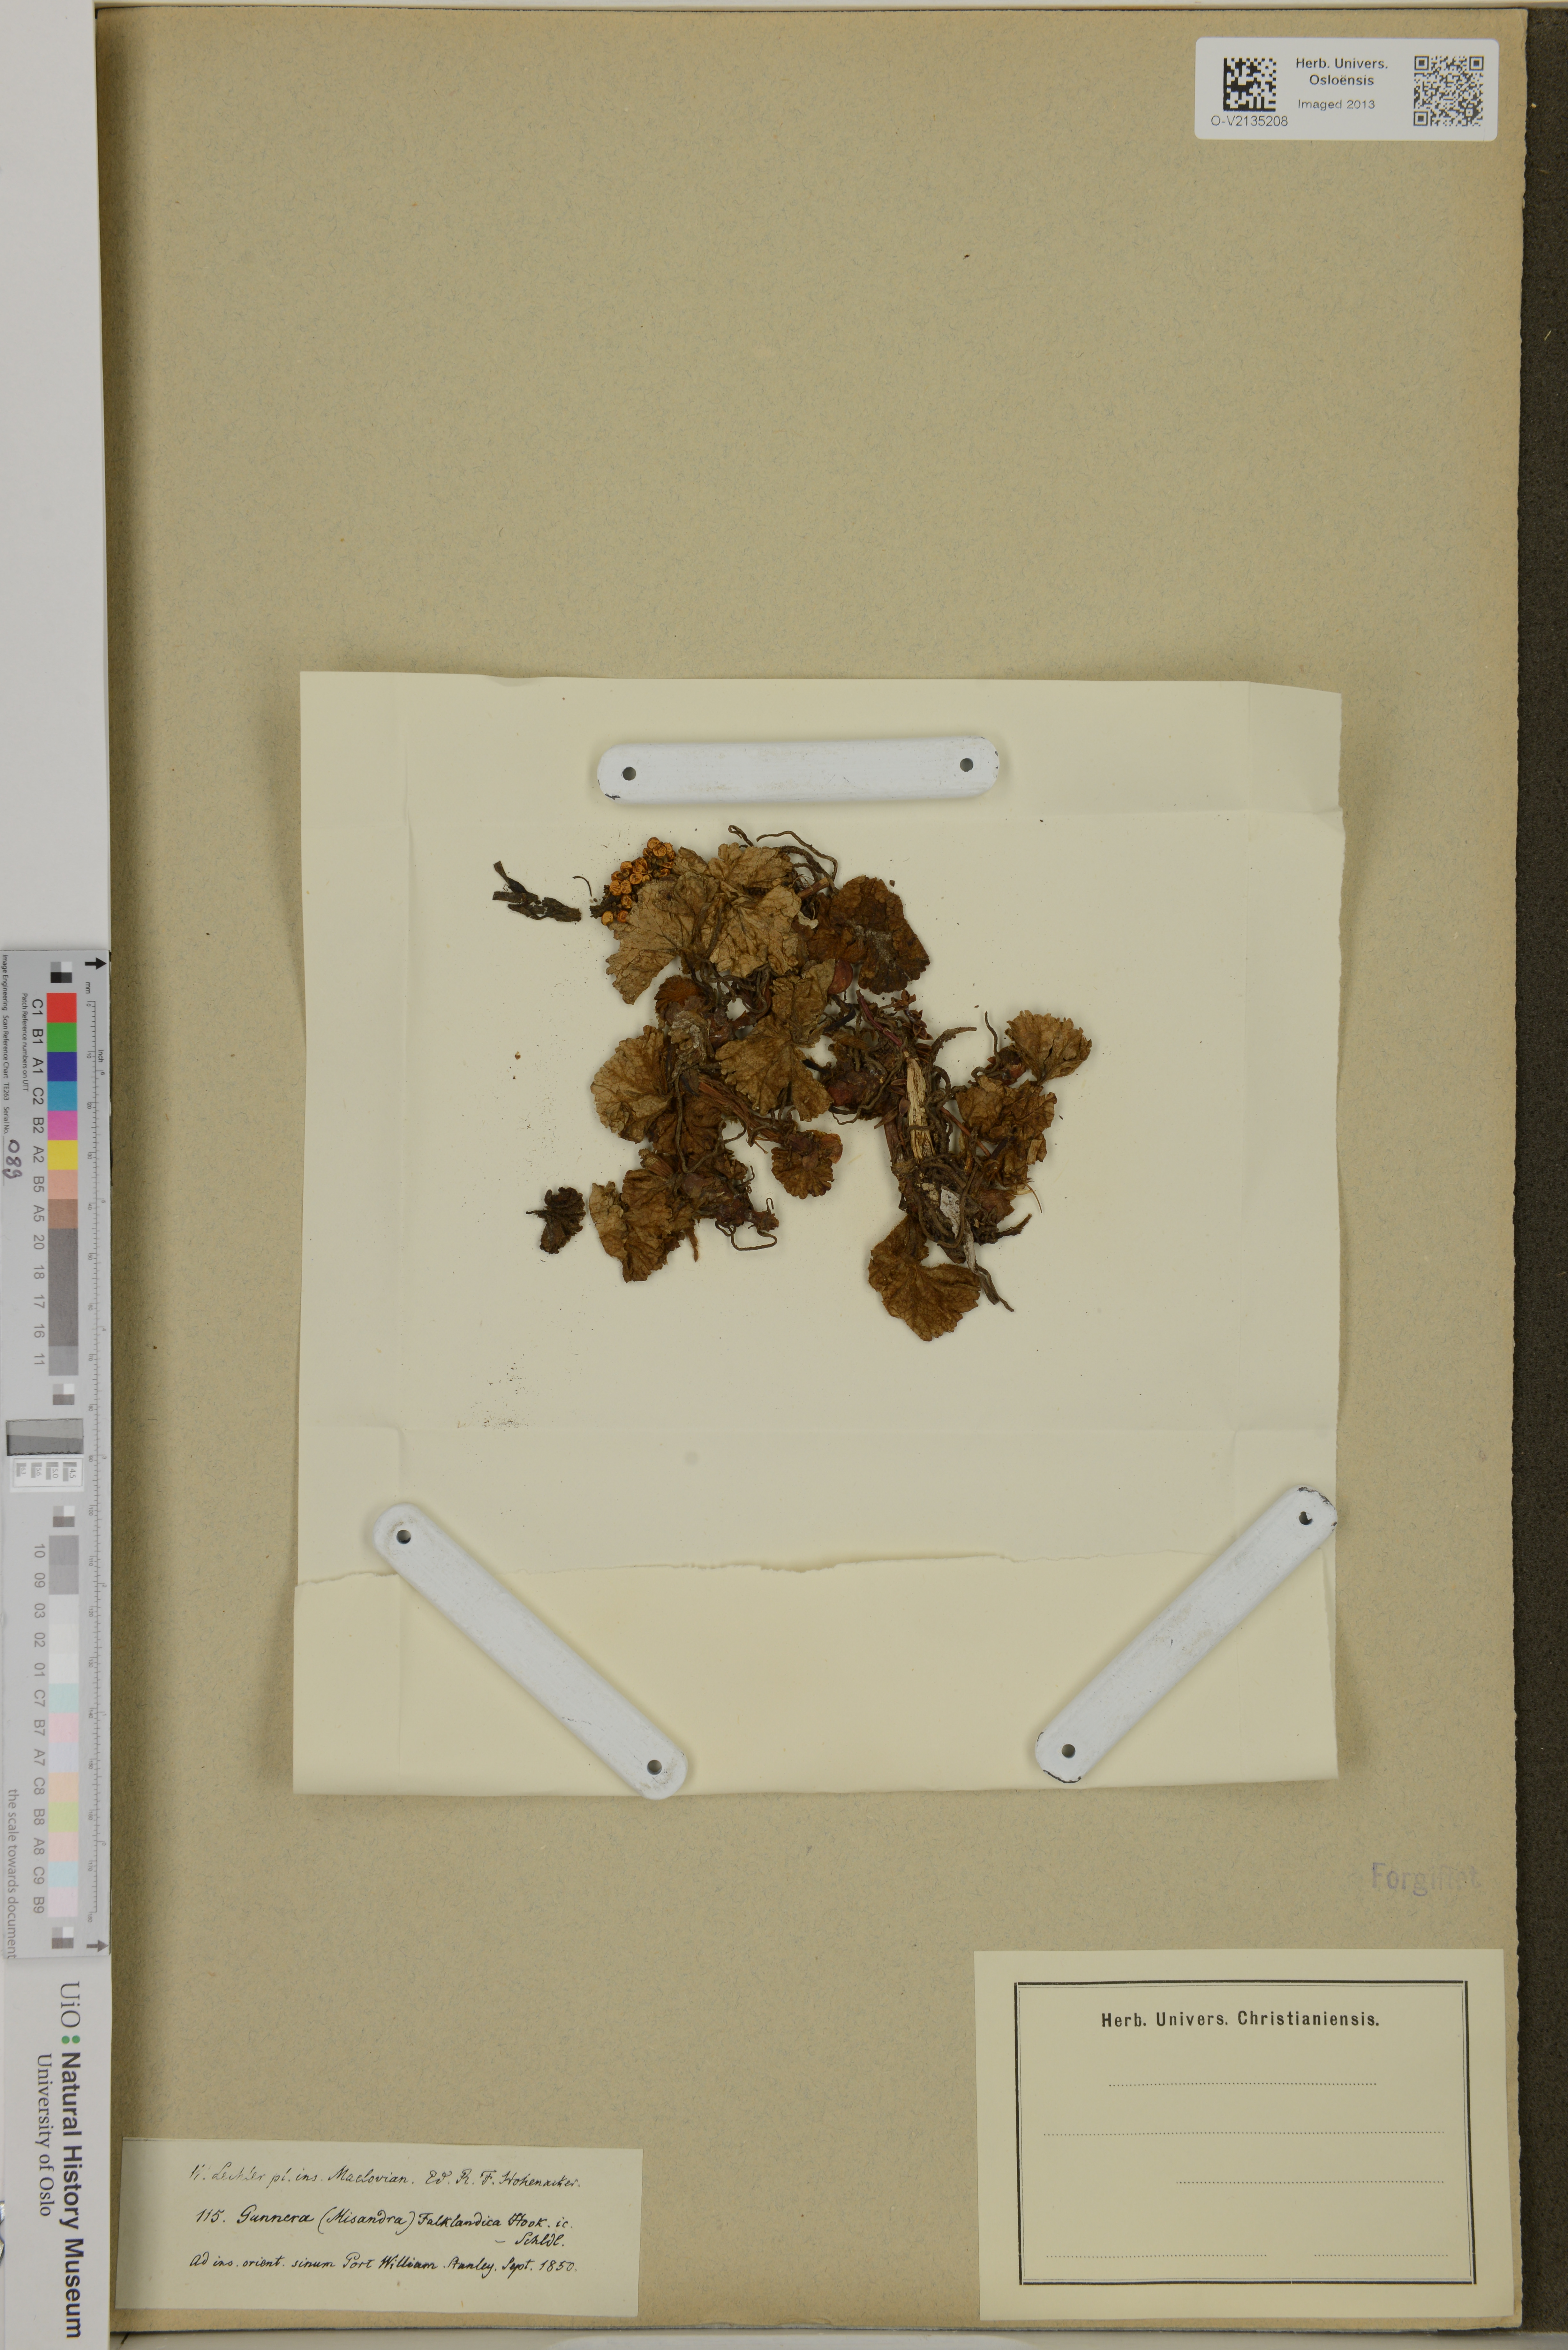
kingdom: Plantae
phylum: Tracheophyta
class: Magnoliopsida
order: Gunnerales
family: Gunneraceae
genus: Gunnera
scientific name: Gunnera magellanica
